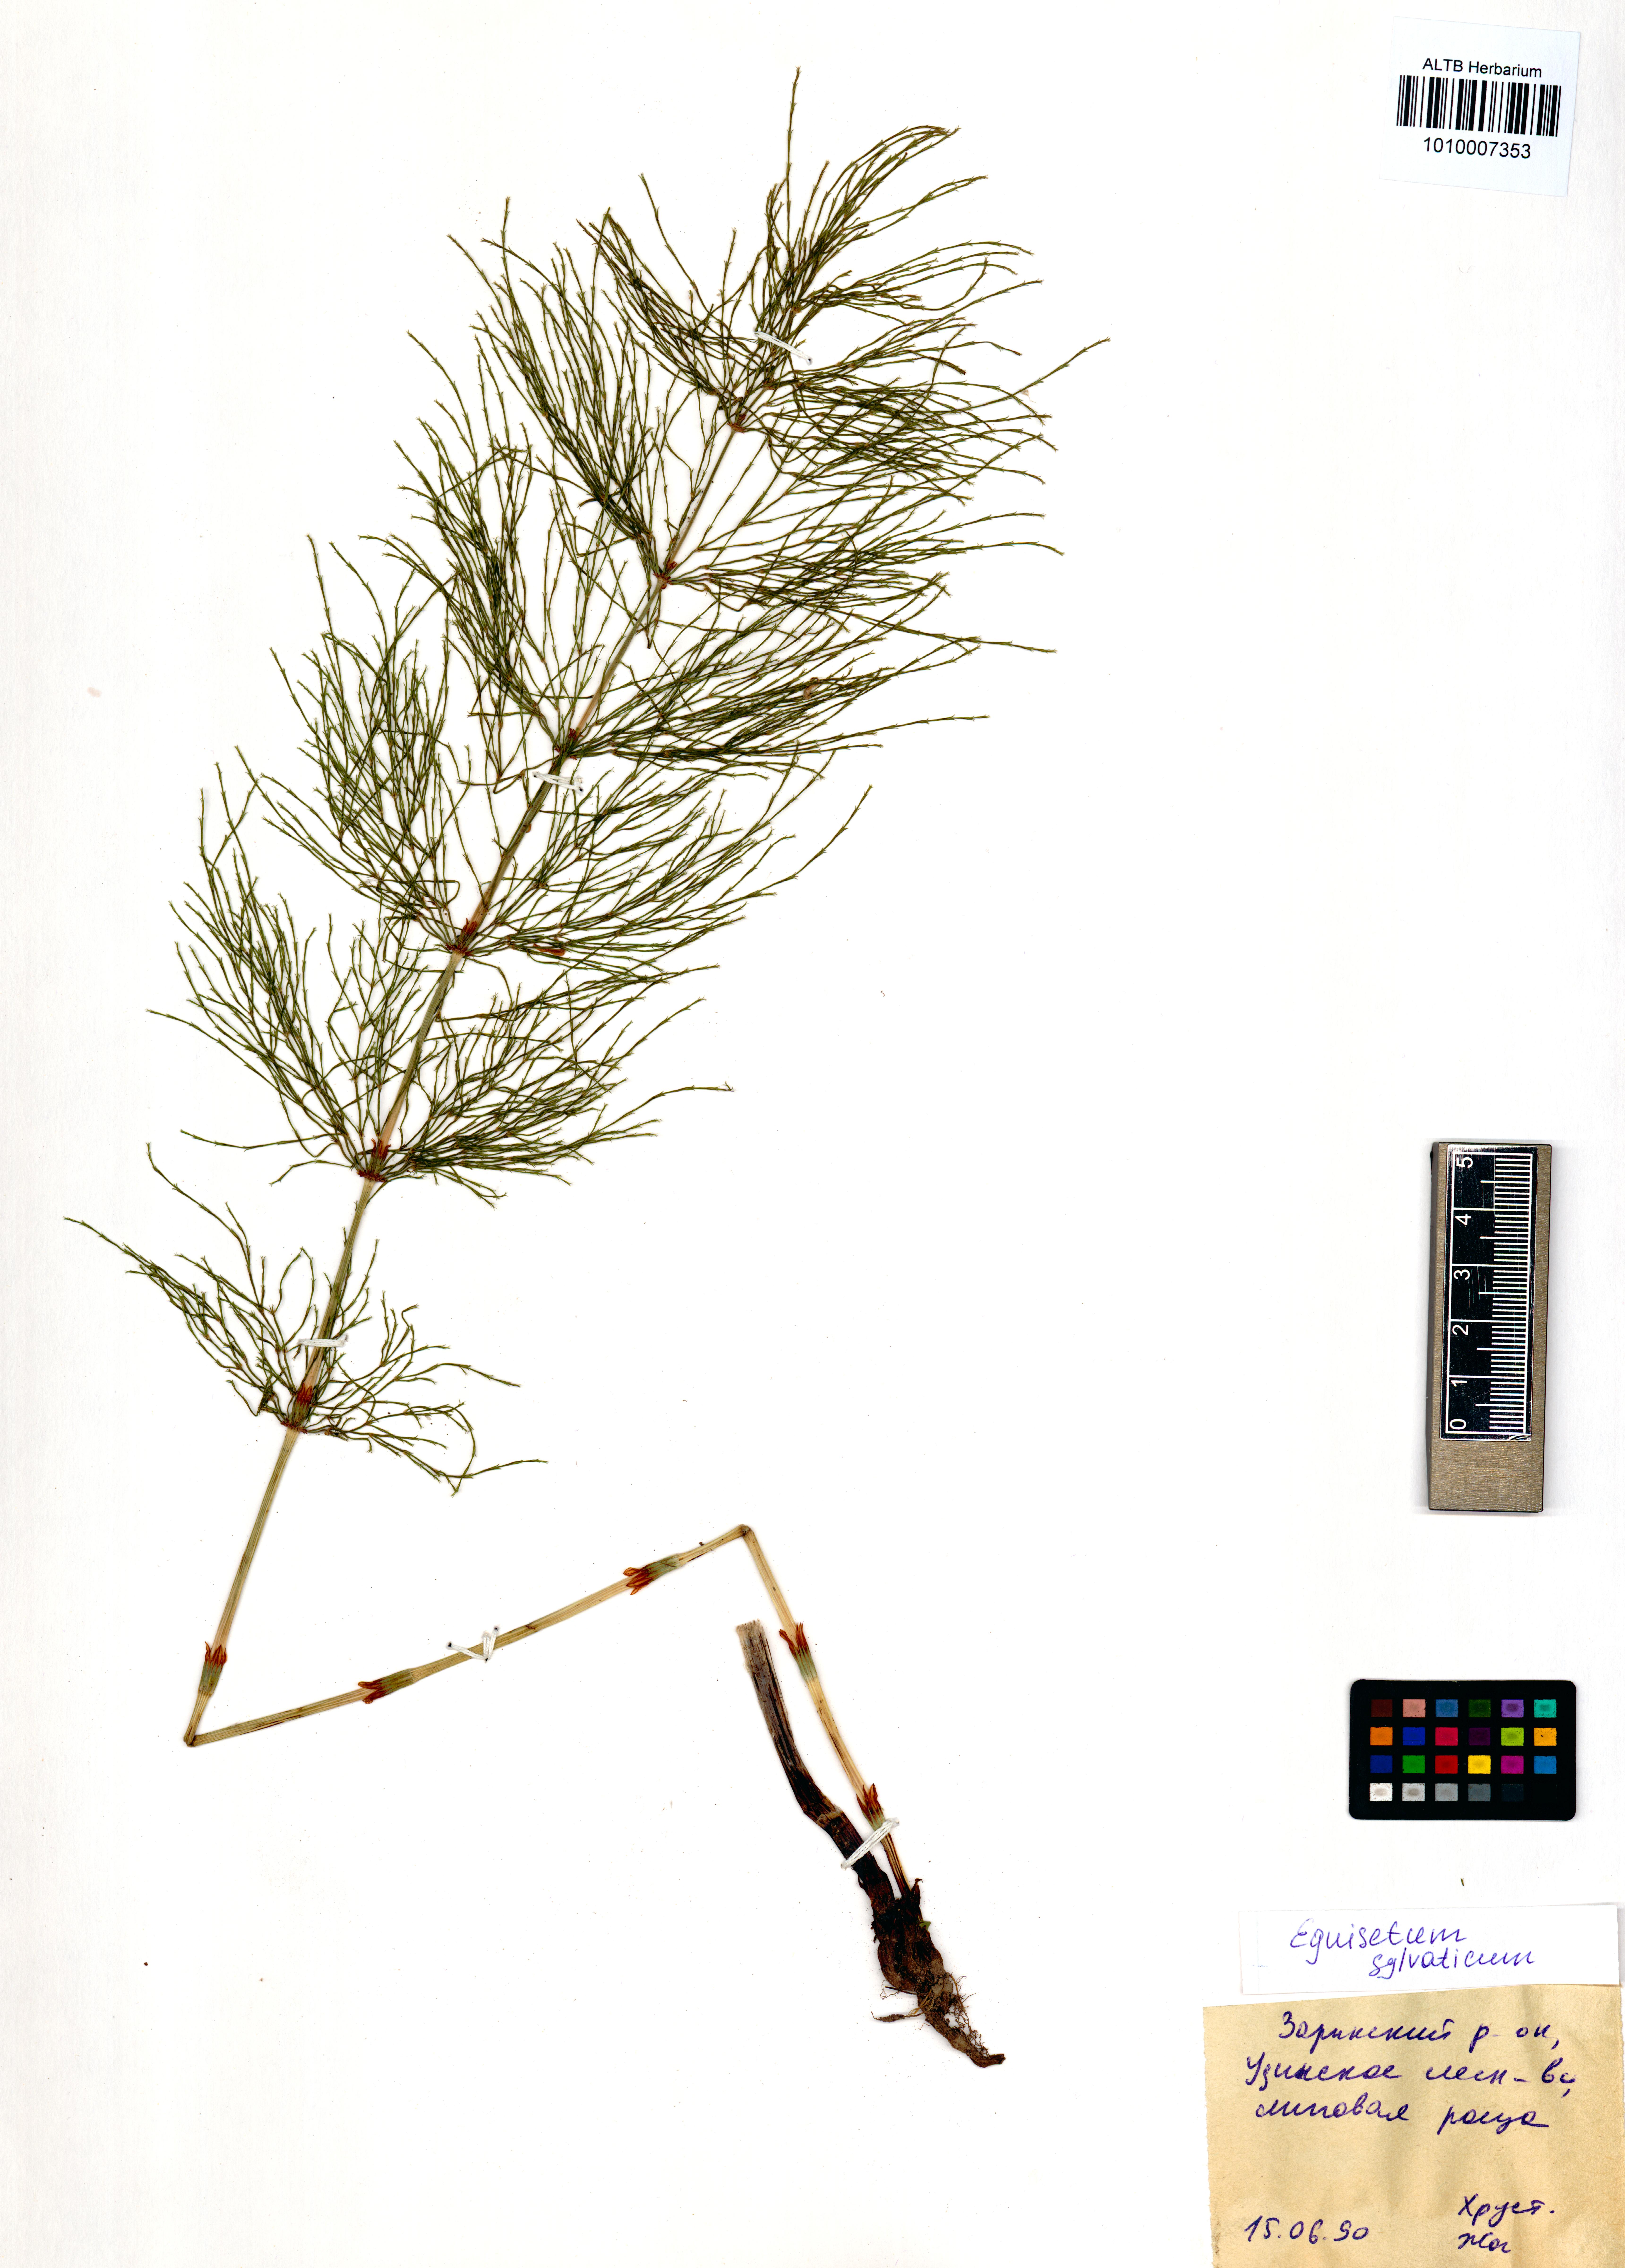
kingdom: Plantae
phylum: Tracheophyta
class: Polypodiopsida
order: Equisetales
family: Equisetaceae
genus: Equisetum
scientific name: Equisetum sylvaticum
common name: Wood horsetail
